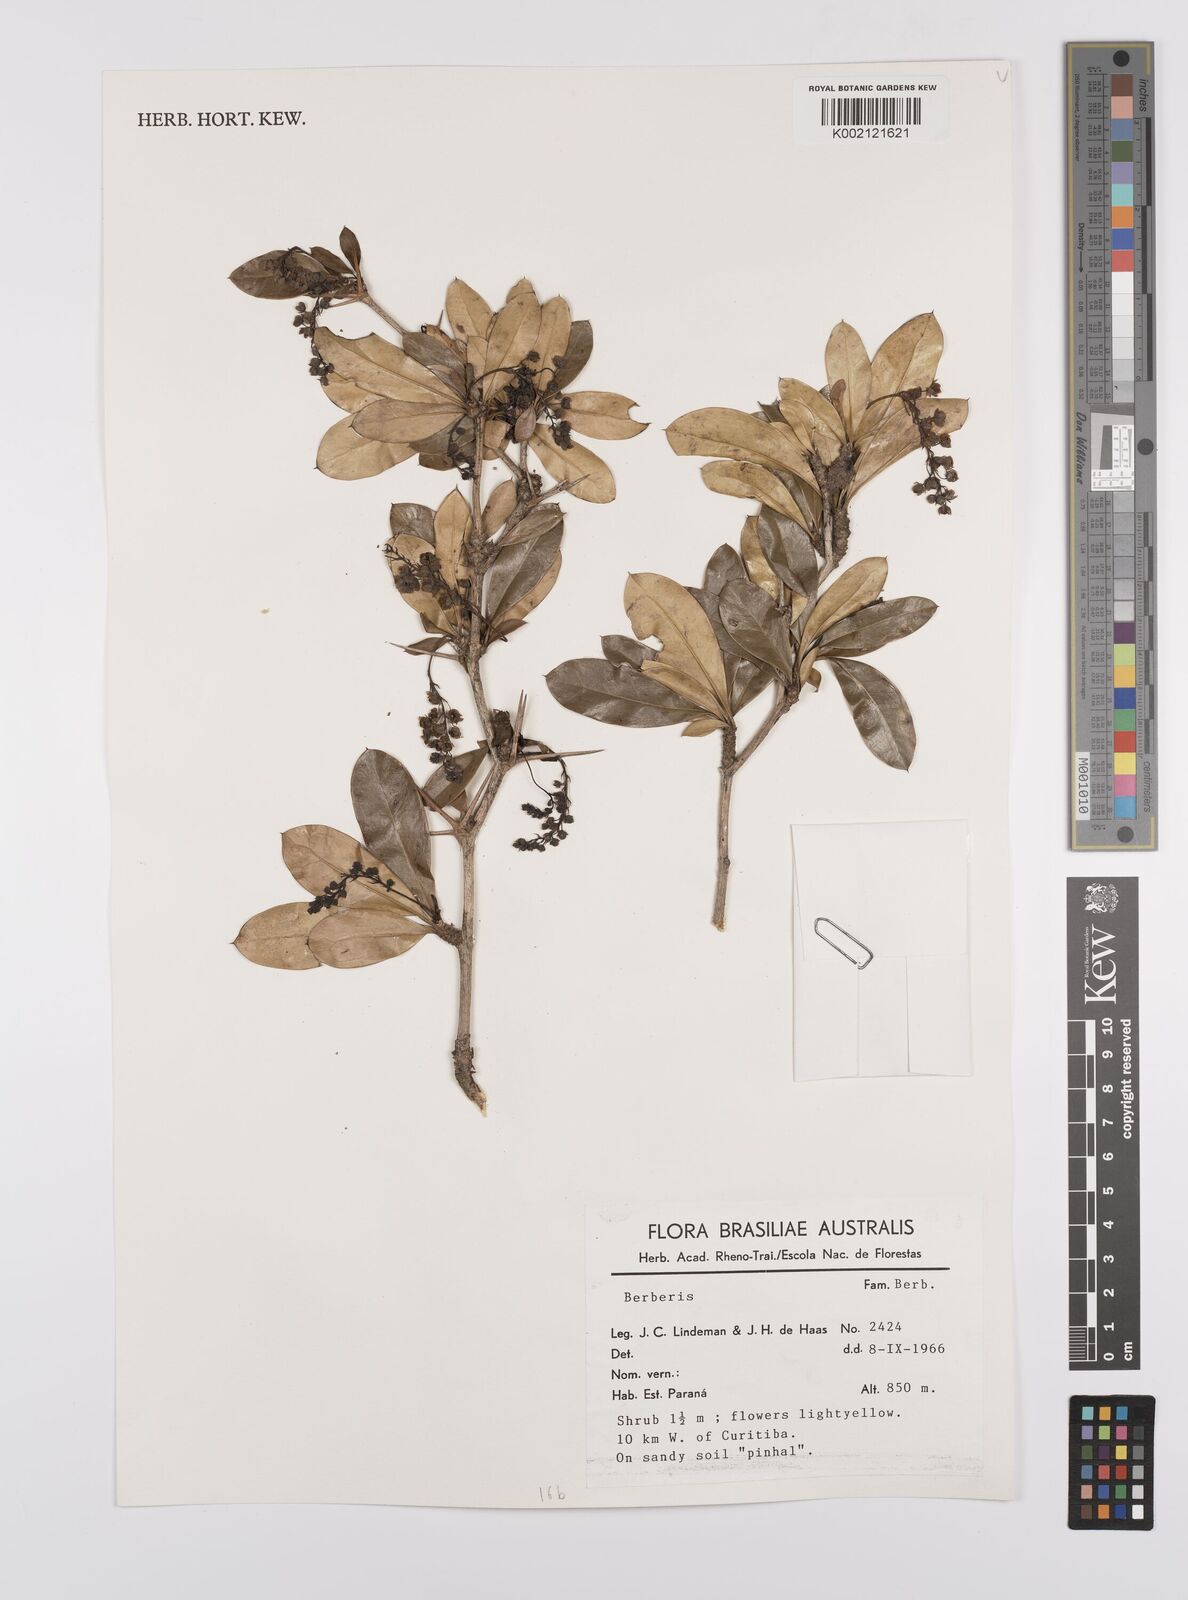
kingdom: Plantae
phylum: Tracheophyta
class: Magnoliopsida
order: Ranunculales
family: Berberidaceae
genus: Berberis
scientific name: Berberis
